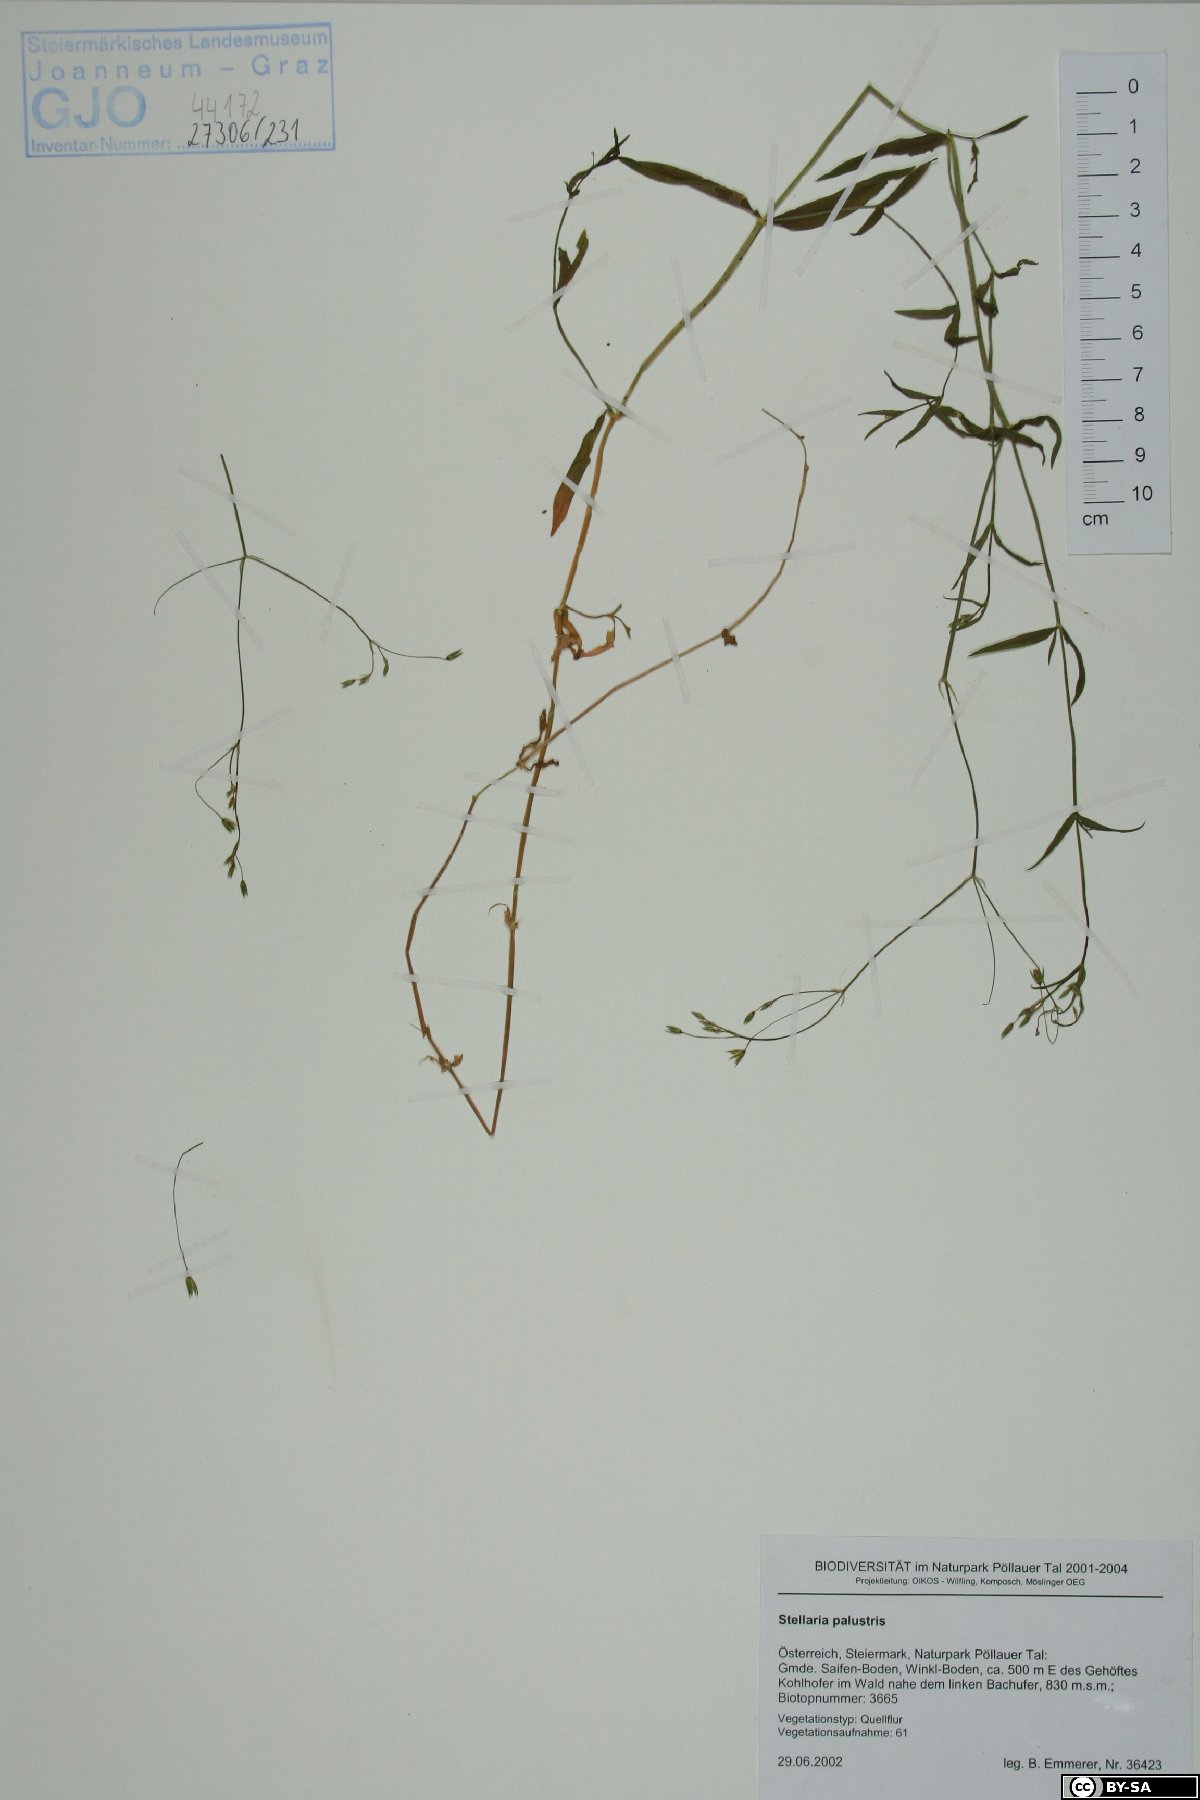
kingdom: Plantae
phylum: Tracheophyta
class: Magnoliopsida
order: Caryophyllales
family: Caryophyllaceae
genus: Stellaria
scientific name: Stellaria palustris
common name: Marsh stitchwort
